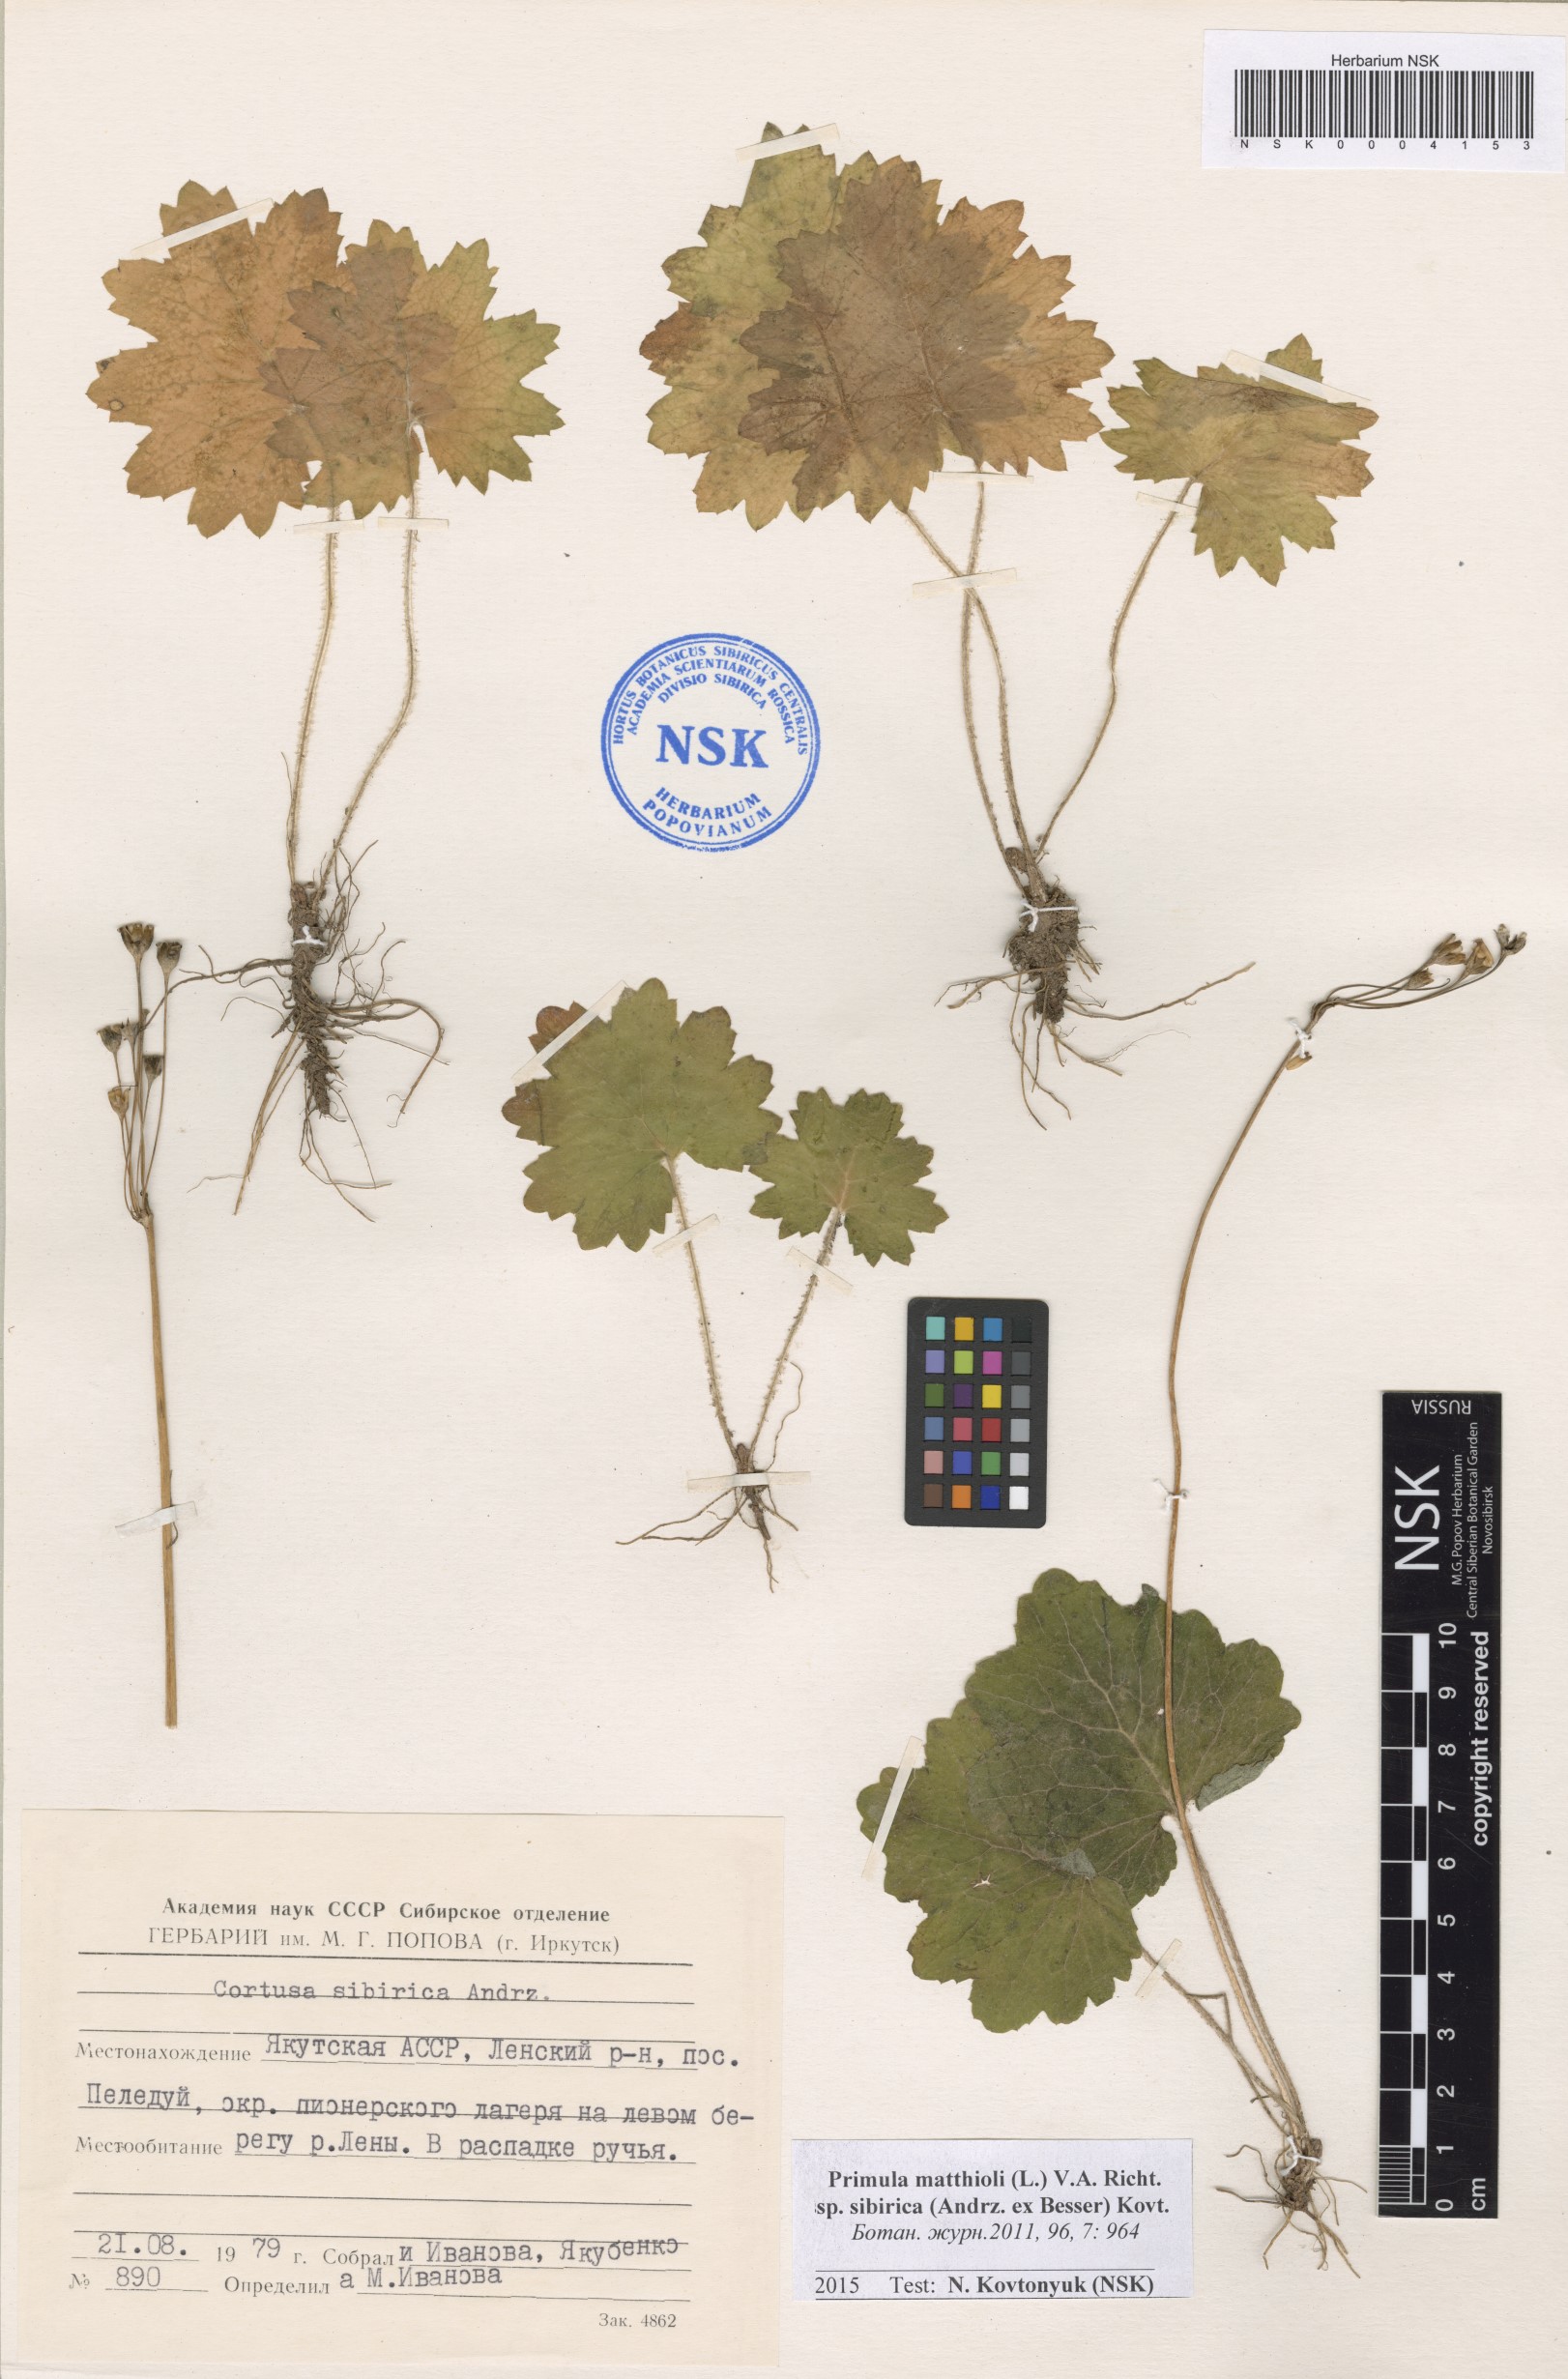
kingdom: Plantae
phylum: Tracheophyta
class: Magnoliopsida
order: Ericales
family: Primulaceae
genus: Primula
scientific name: Primula matthioli
